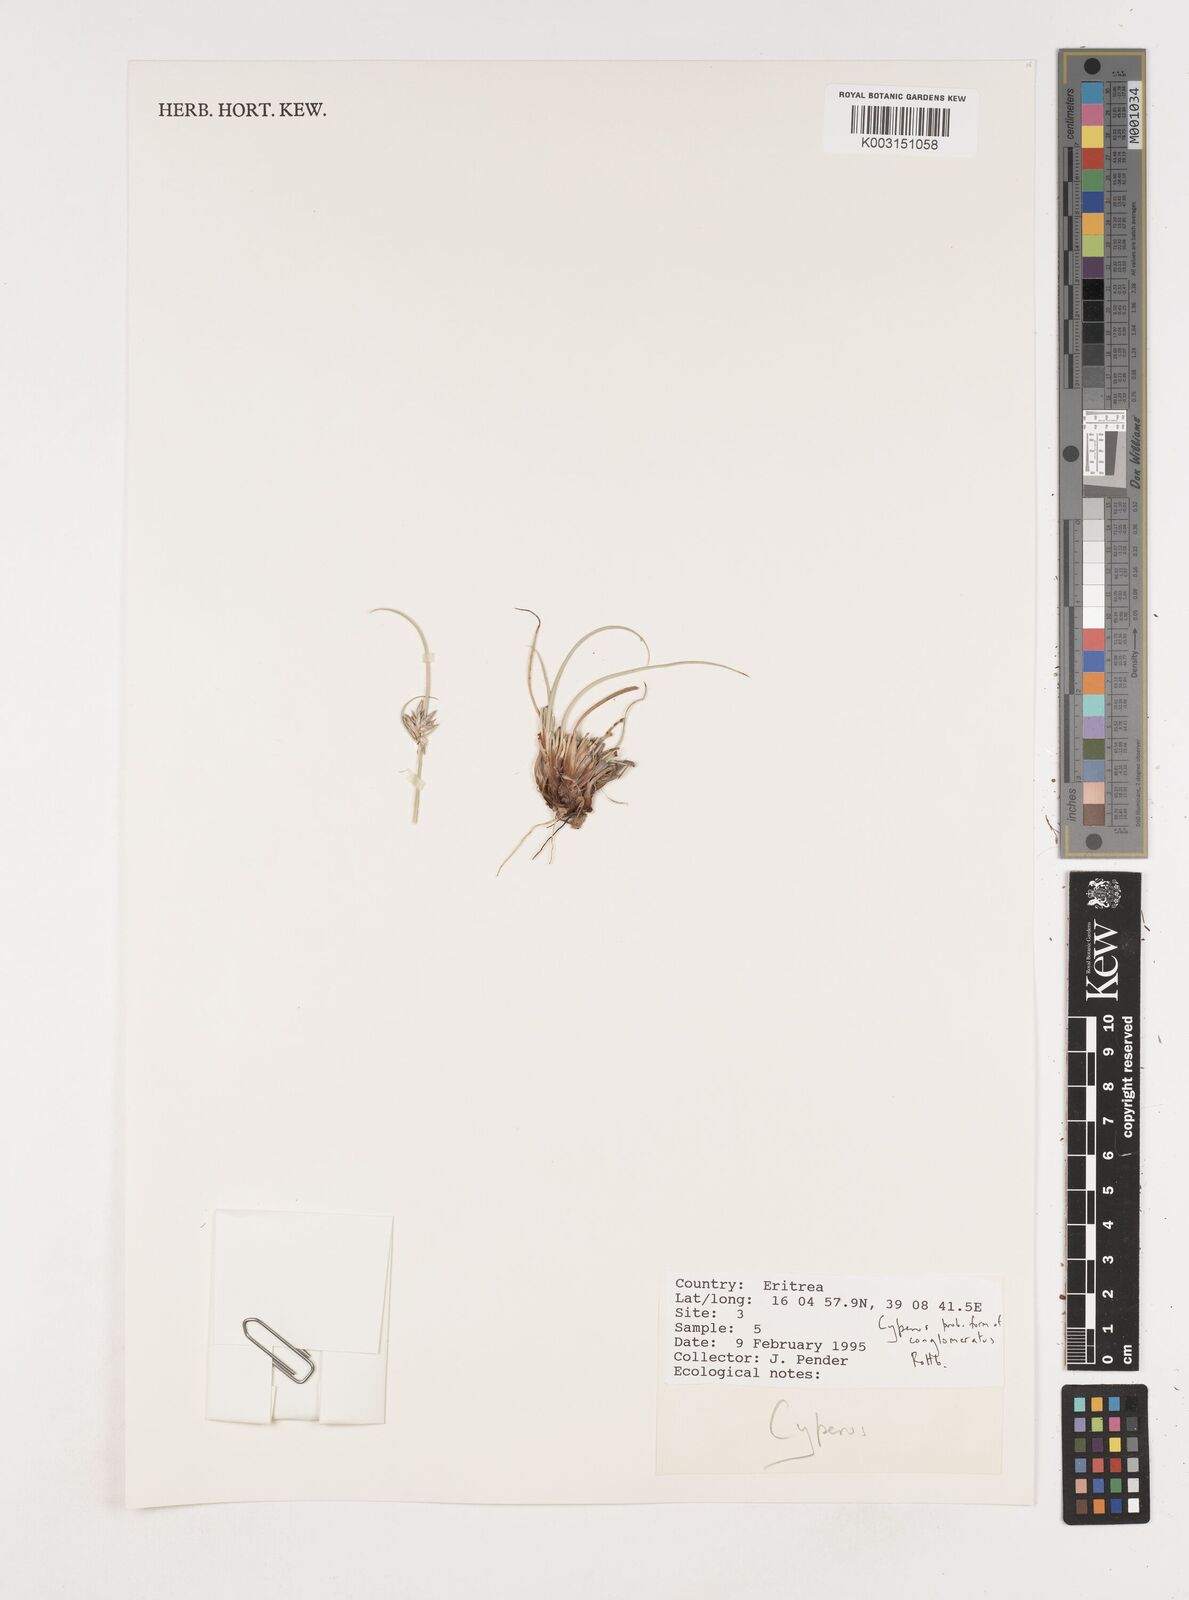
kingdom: Plantae
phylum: Tracheophyta
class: Liliopsida
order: Poales
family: Cyperaceae
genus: Cyperus
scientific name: Cyperus conglomeratus
